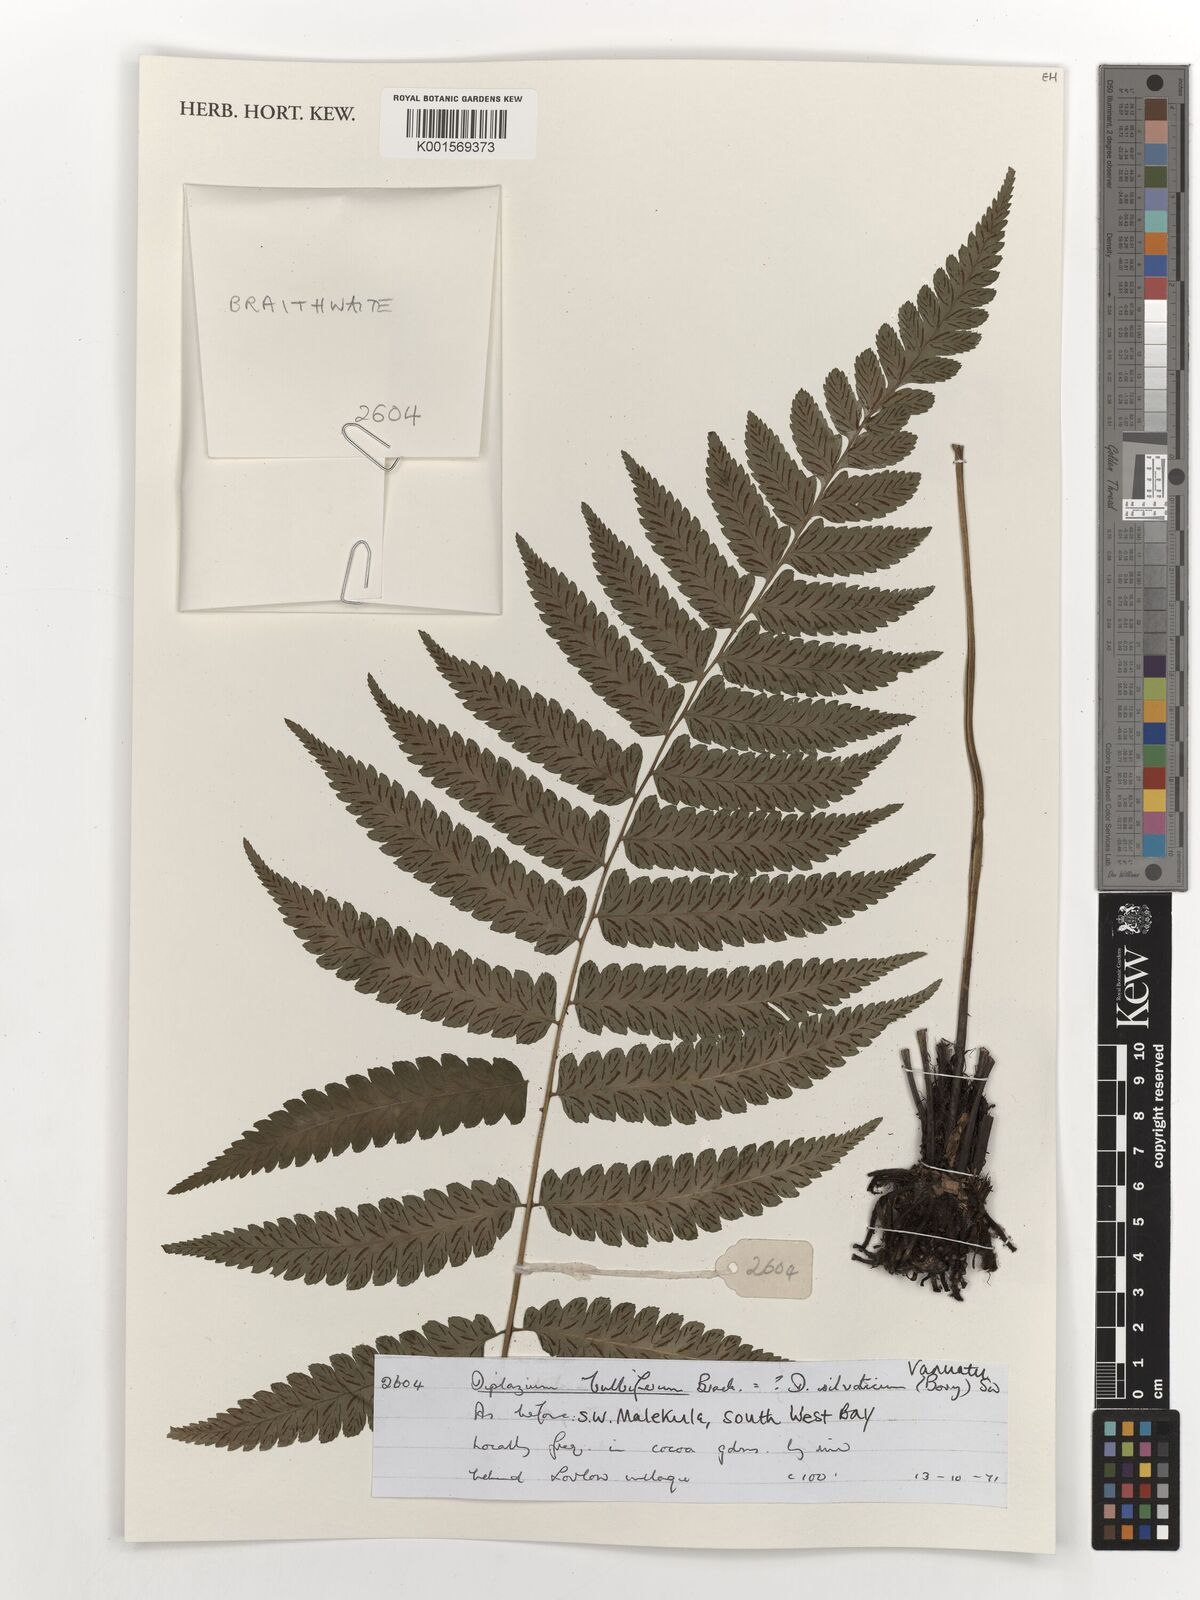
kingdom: Plantae
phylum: Tracheophyta
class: Polypodiopsida
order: Polypodiales
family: Athyriaceae
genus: Diplazium
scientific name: Diplazium bulbiferum
